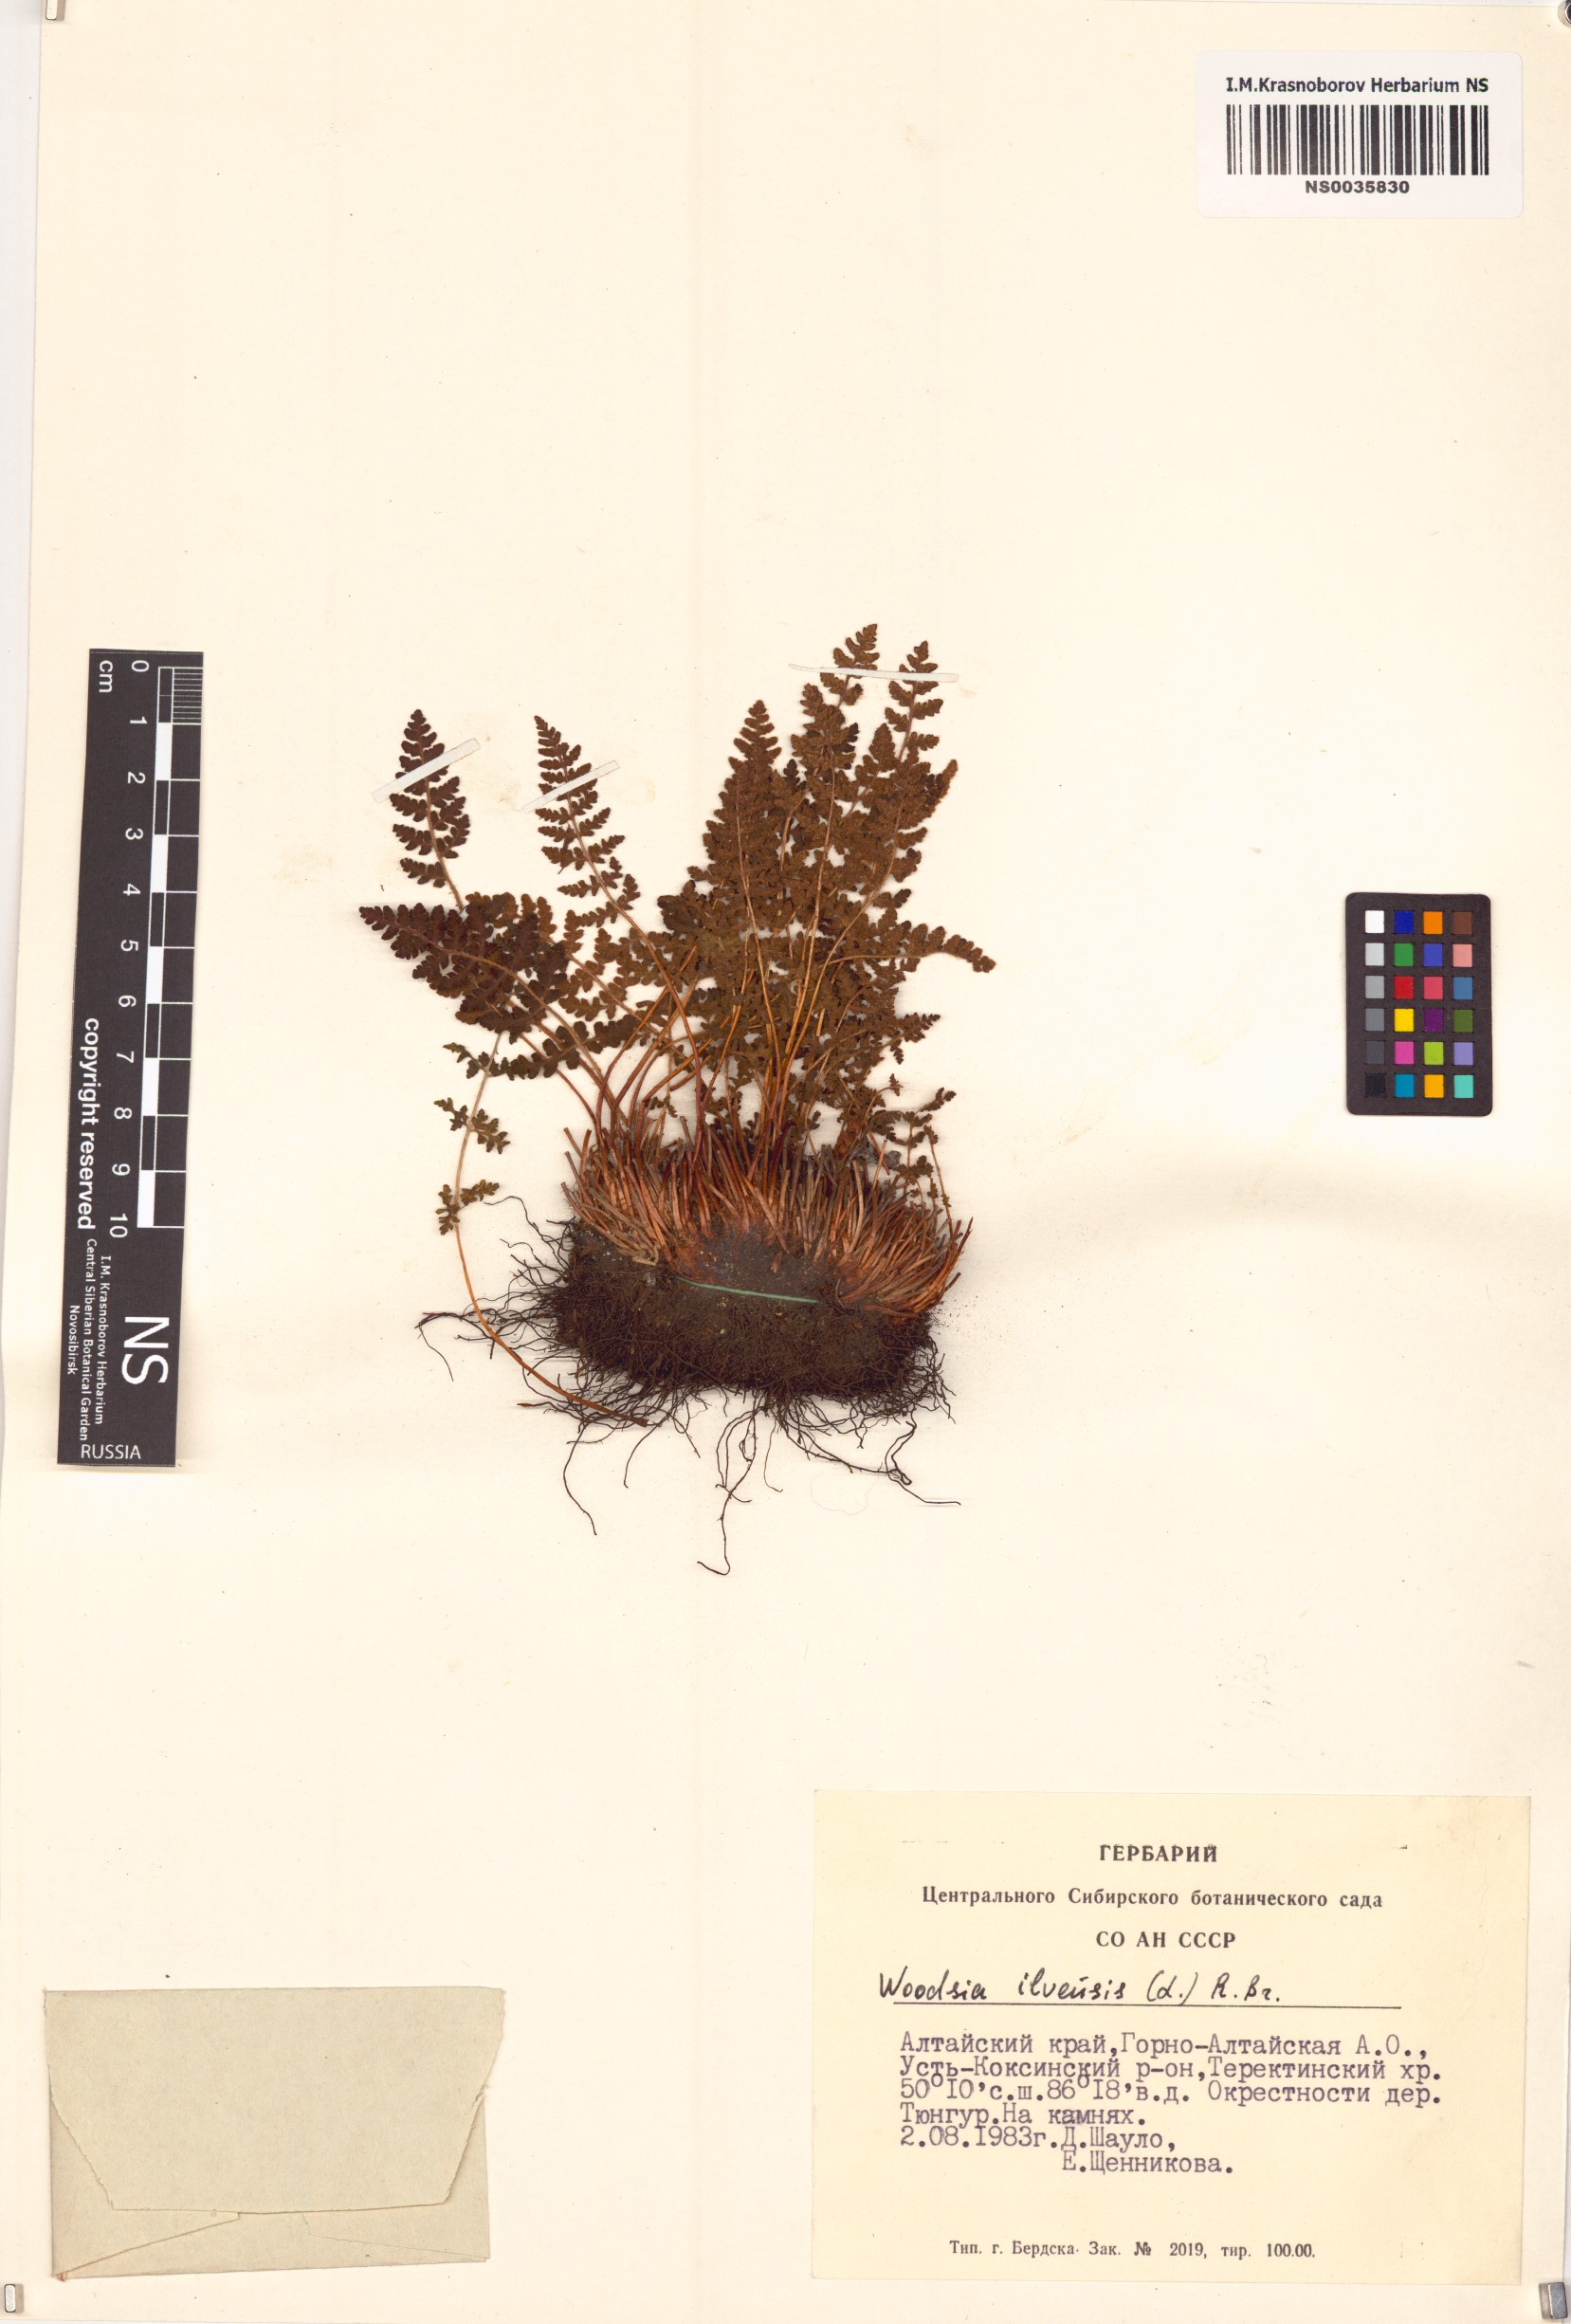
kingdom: Plantae
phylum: Tracheophyta
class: Polypodiopsida
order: Polypodiales
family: Woodsiaceae
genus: Woodsia
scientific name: Woodsia ilvensis
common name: Fragrant woodsia
